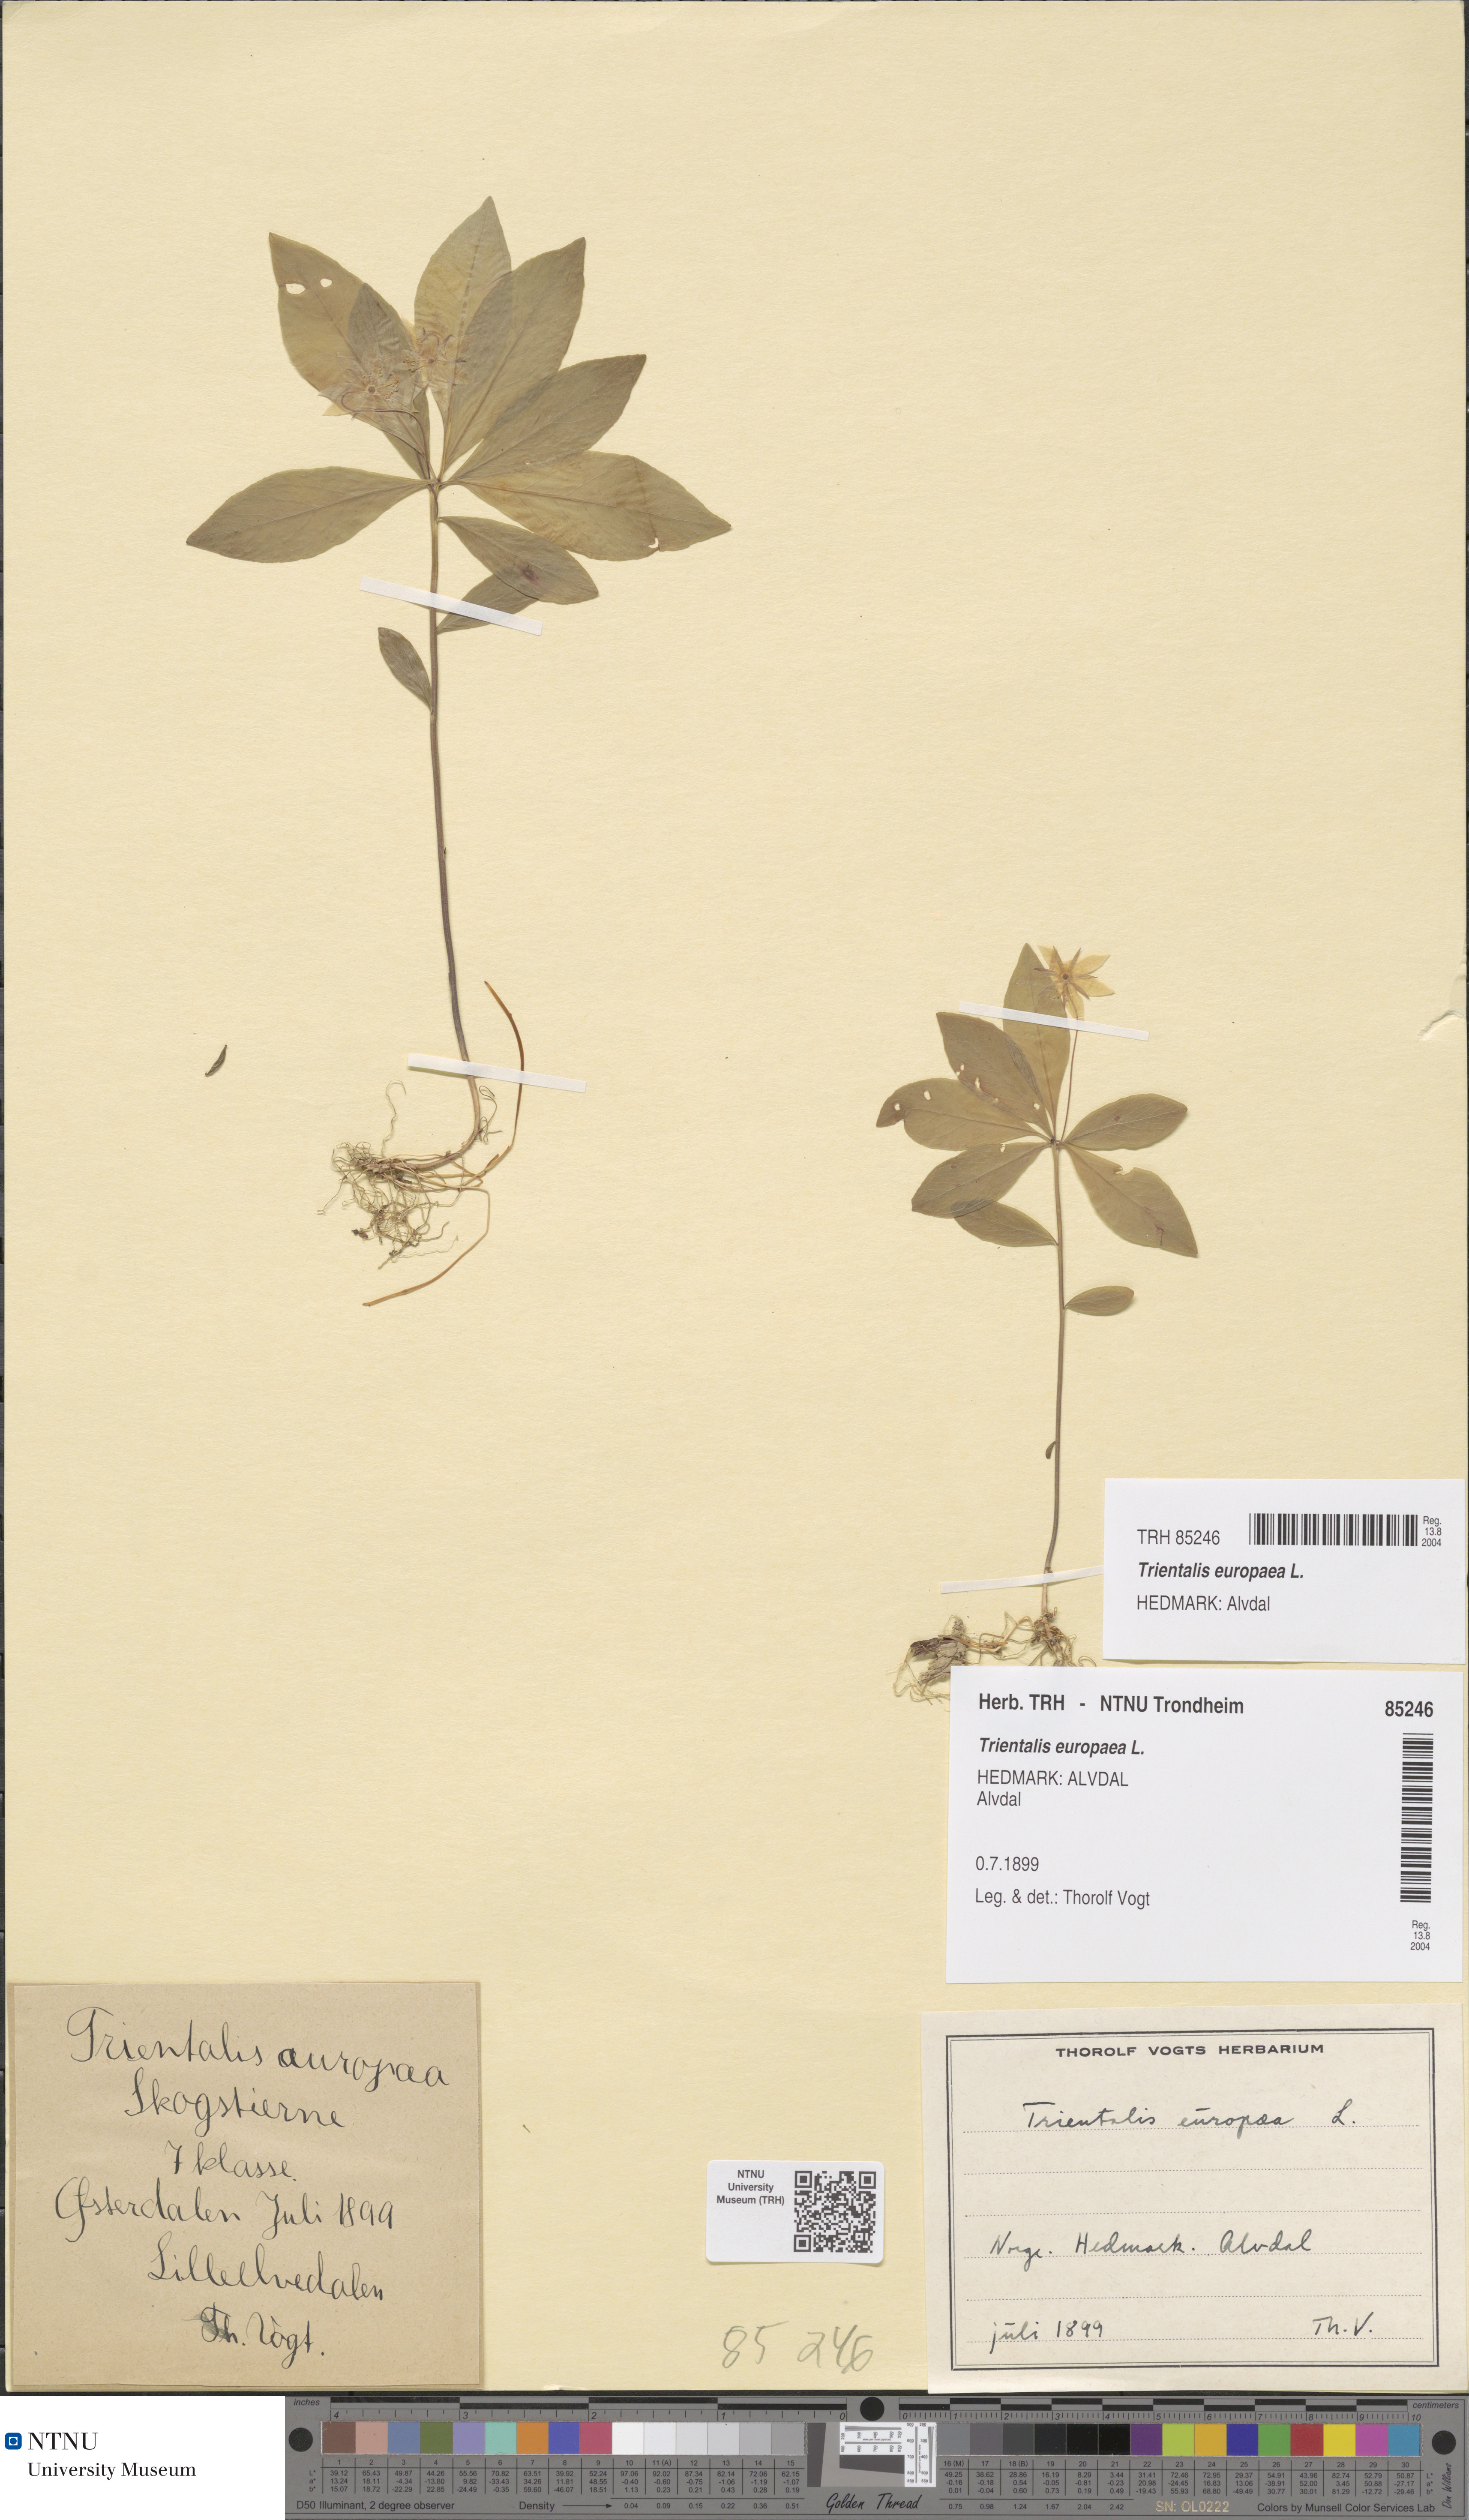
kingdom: Plantae
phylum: Tracheophyta
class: Magnoliopsida
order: Ericales
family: Primulaceae
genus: Lysimachia
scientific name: Lysimachia europaea
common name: Arctic starflower
